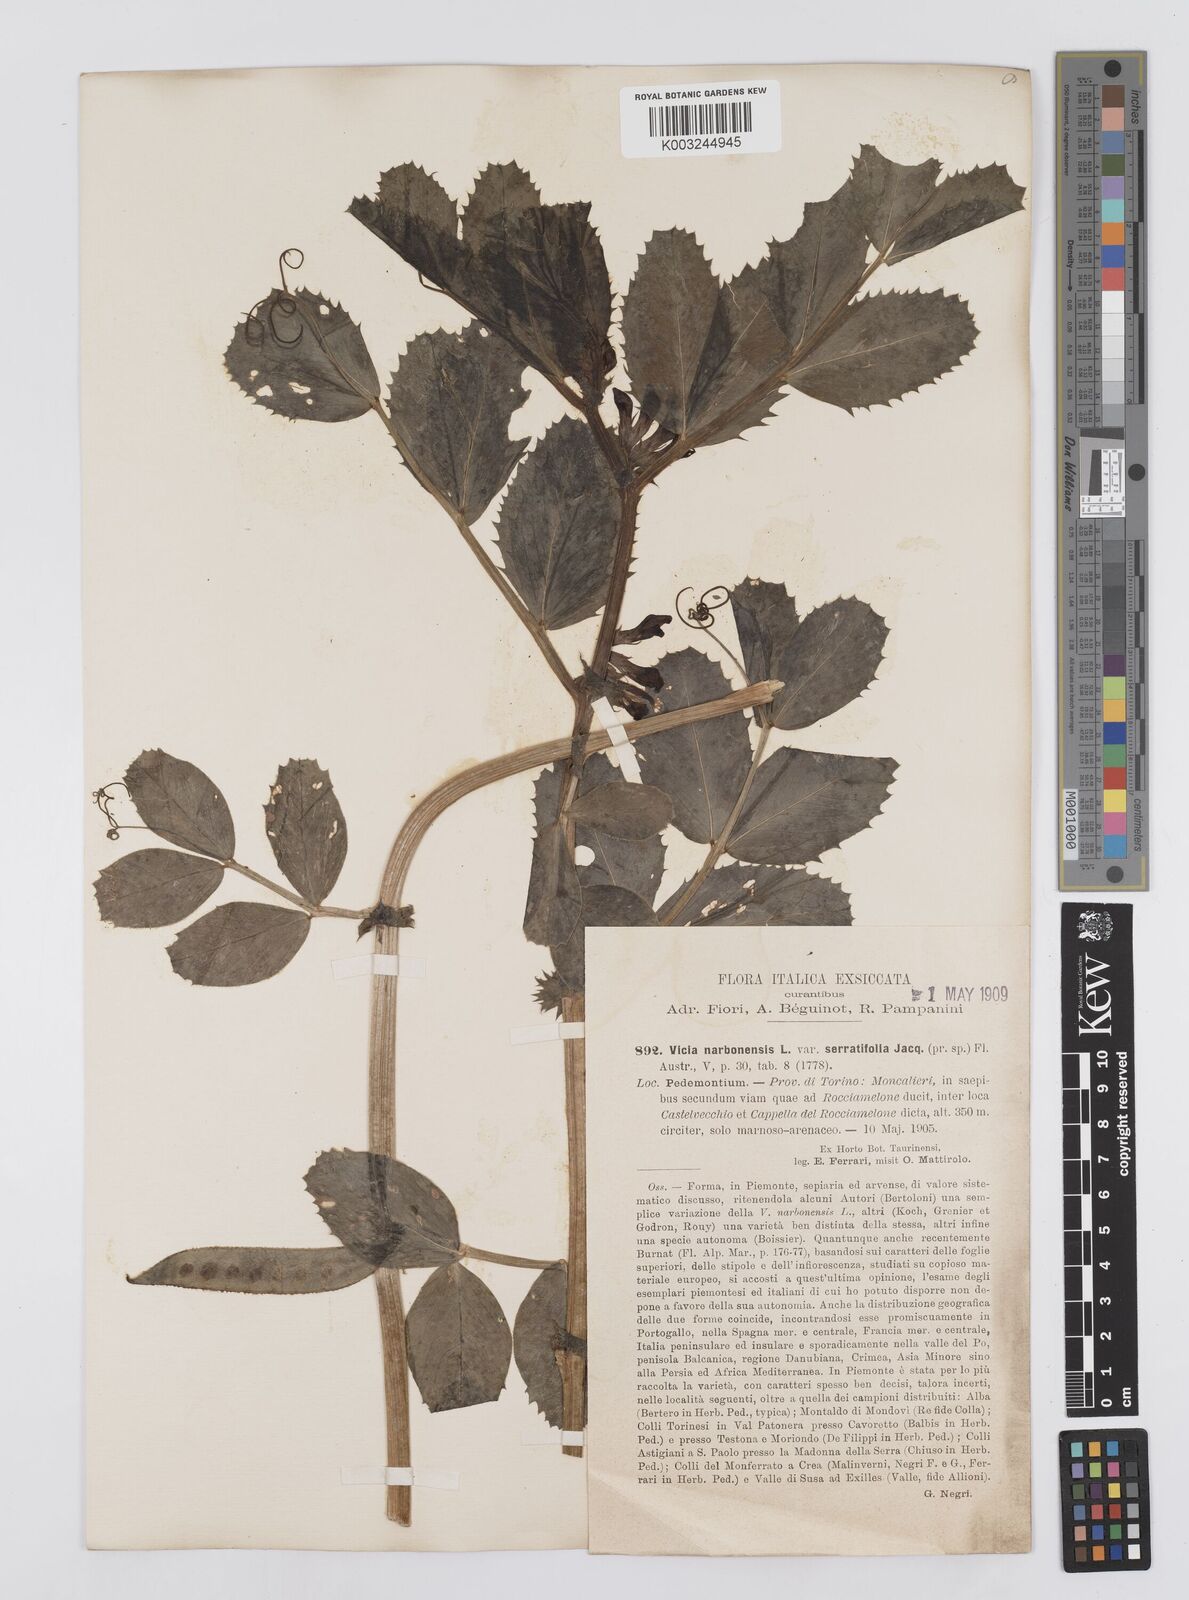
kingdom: Plantae
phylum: Tracheophyta
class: Magnoliopsida
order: Fabales
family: Fabaceae
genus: Vicia
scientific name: Vicia serratifolia
